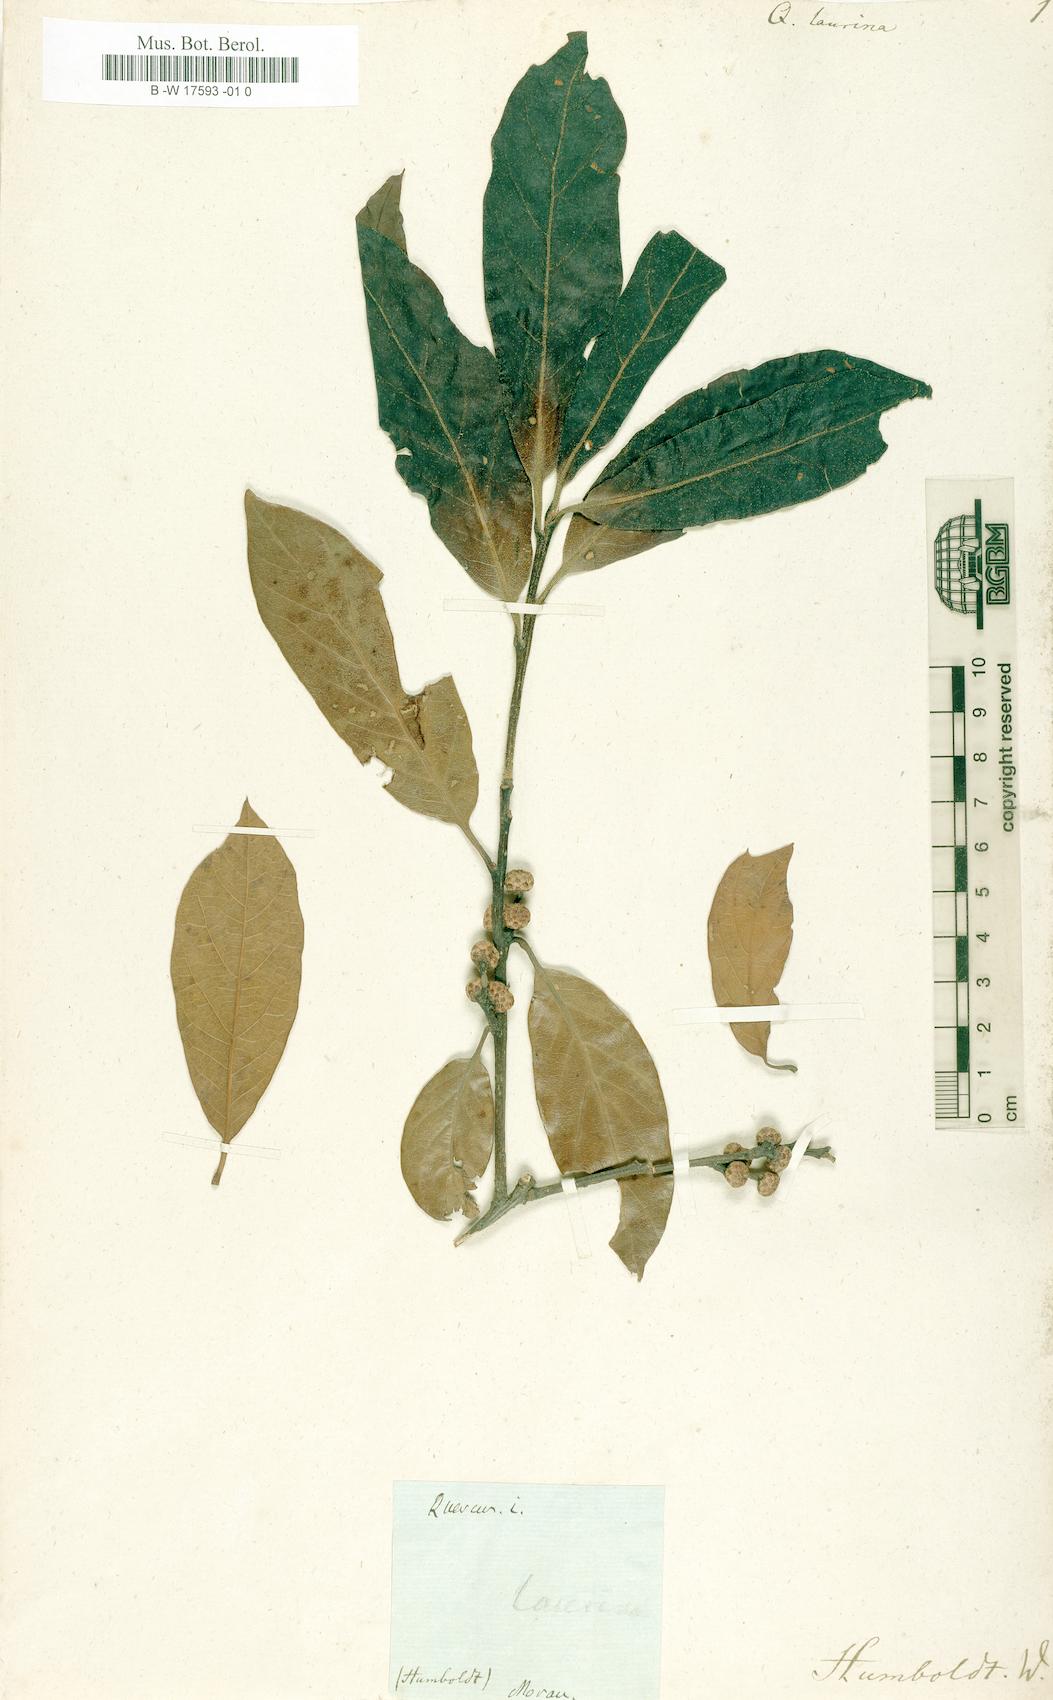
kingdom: Plantae
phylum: Tracheophyta
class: Magnoliopsida
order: Fagales
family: Fagaceae
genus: Quercus
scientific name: Quercus laurina
